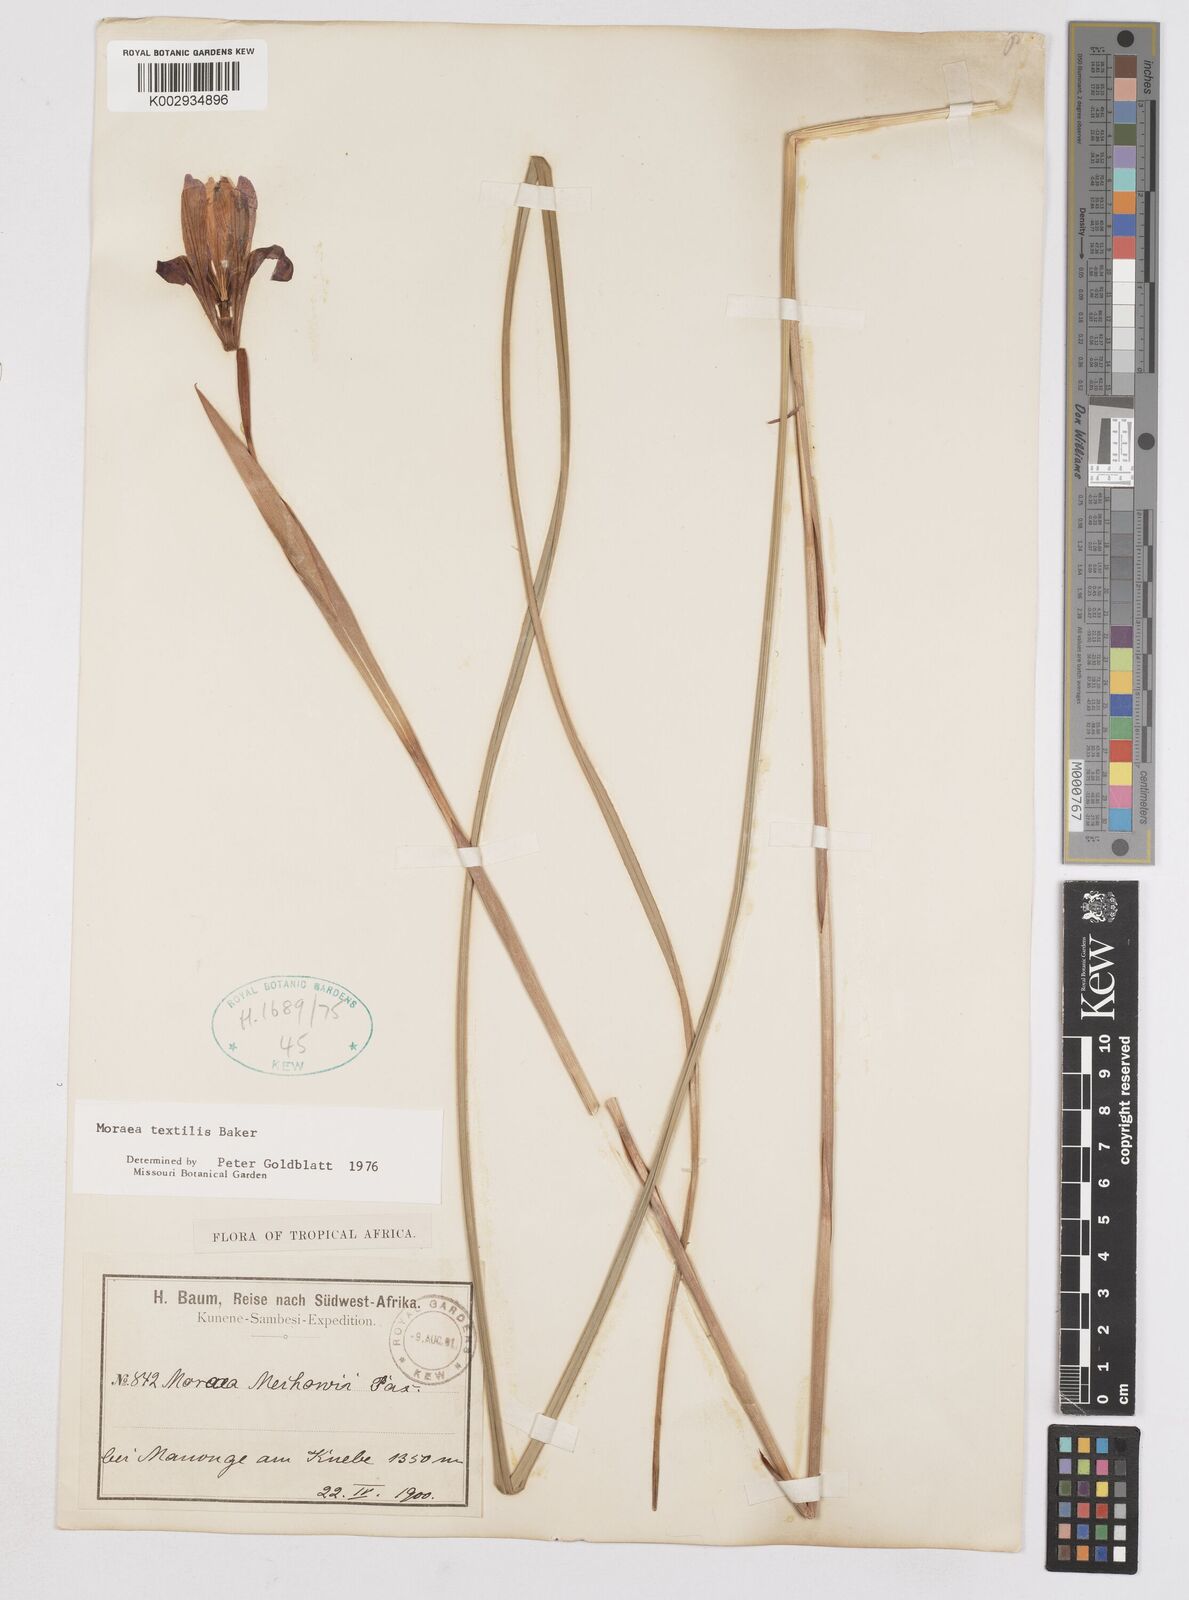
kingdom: Plantae
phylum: Tracheophyta
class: Liliopsida
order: Asparagales
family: Iridaceae
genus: Moraea
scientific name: Moraea textilis
